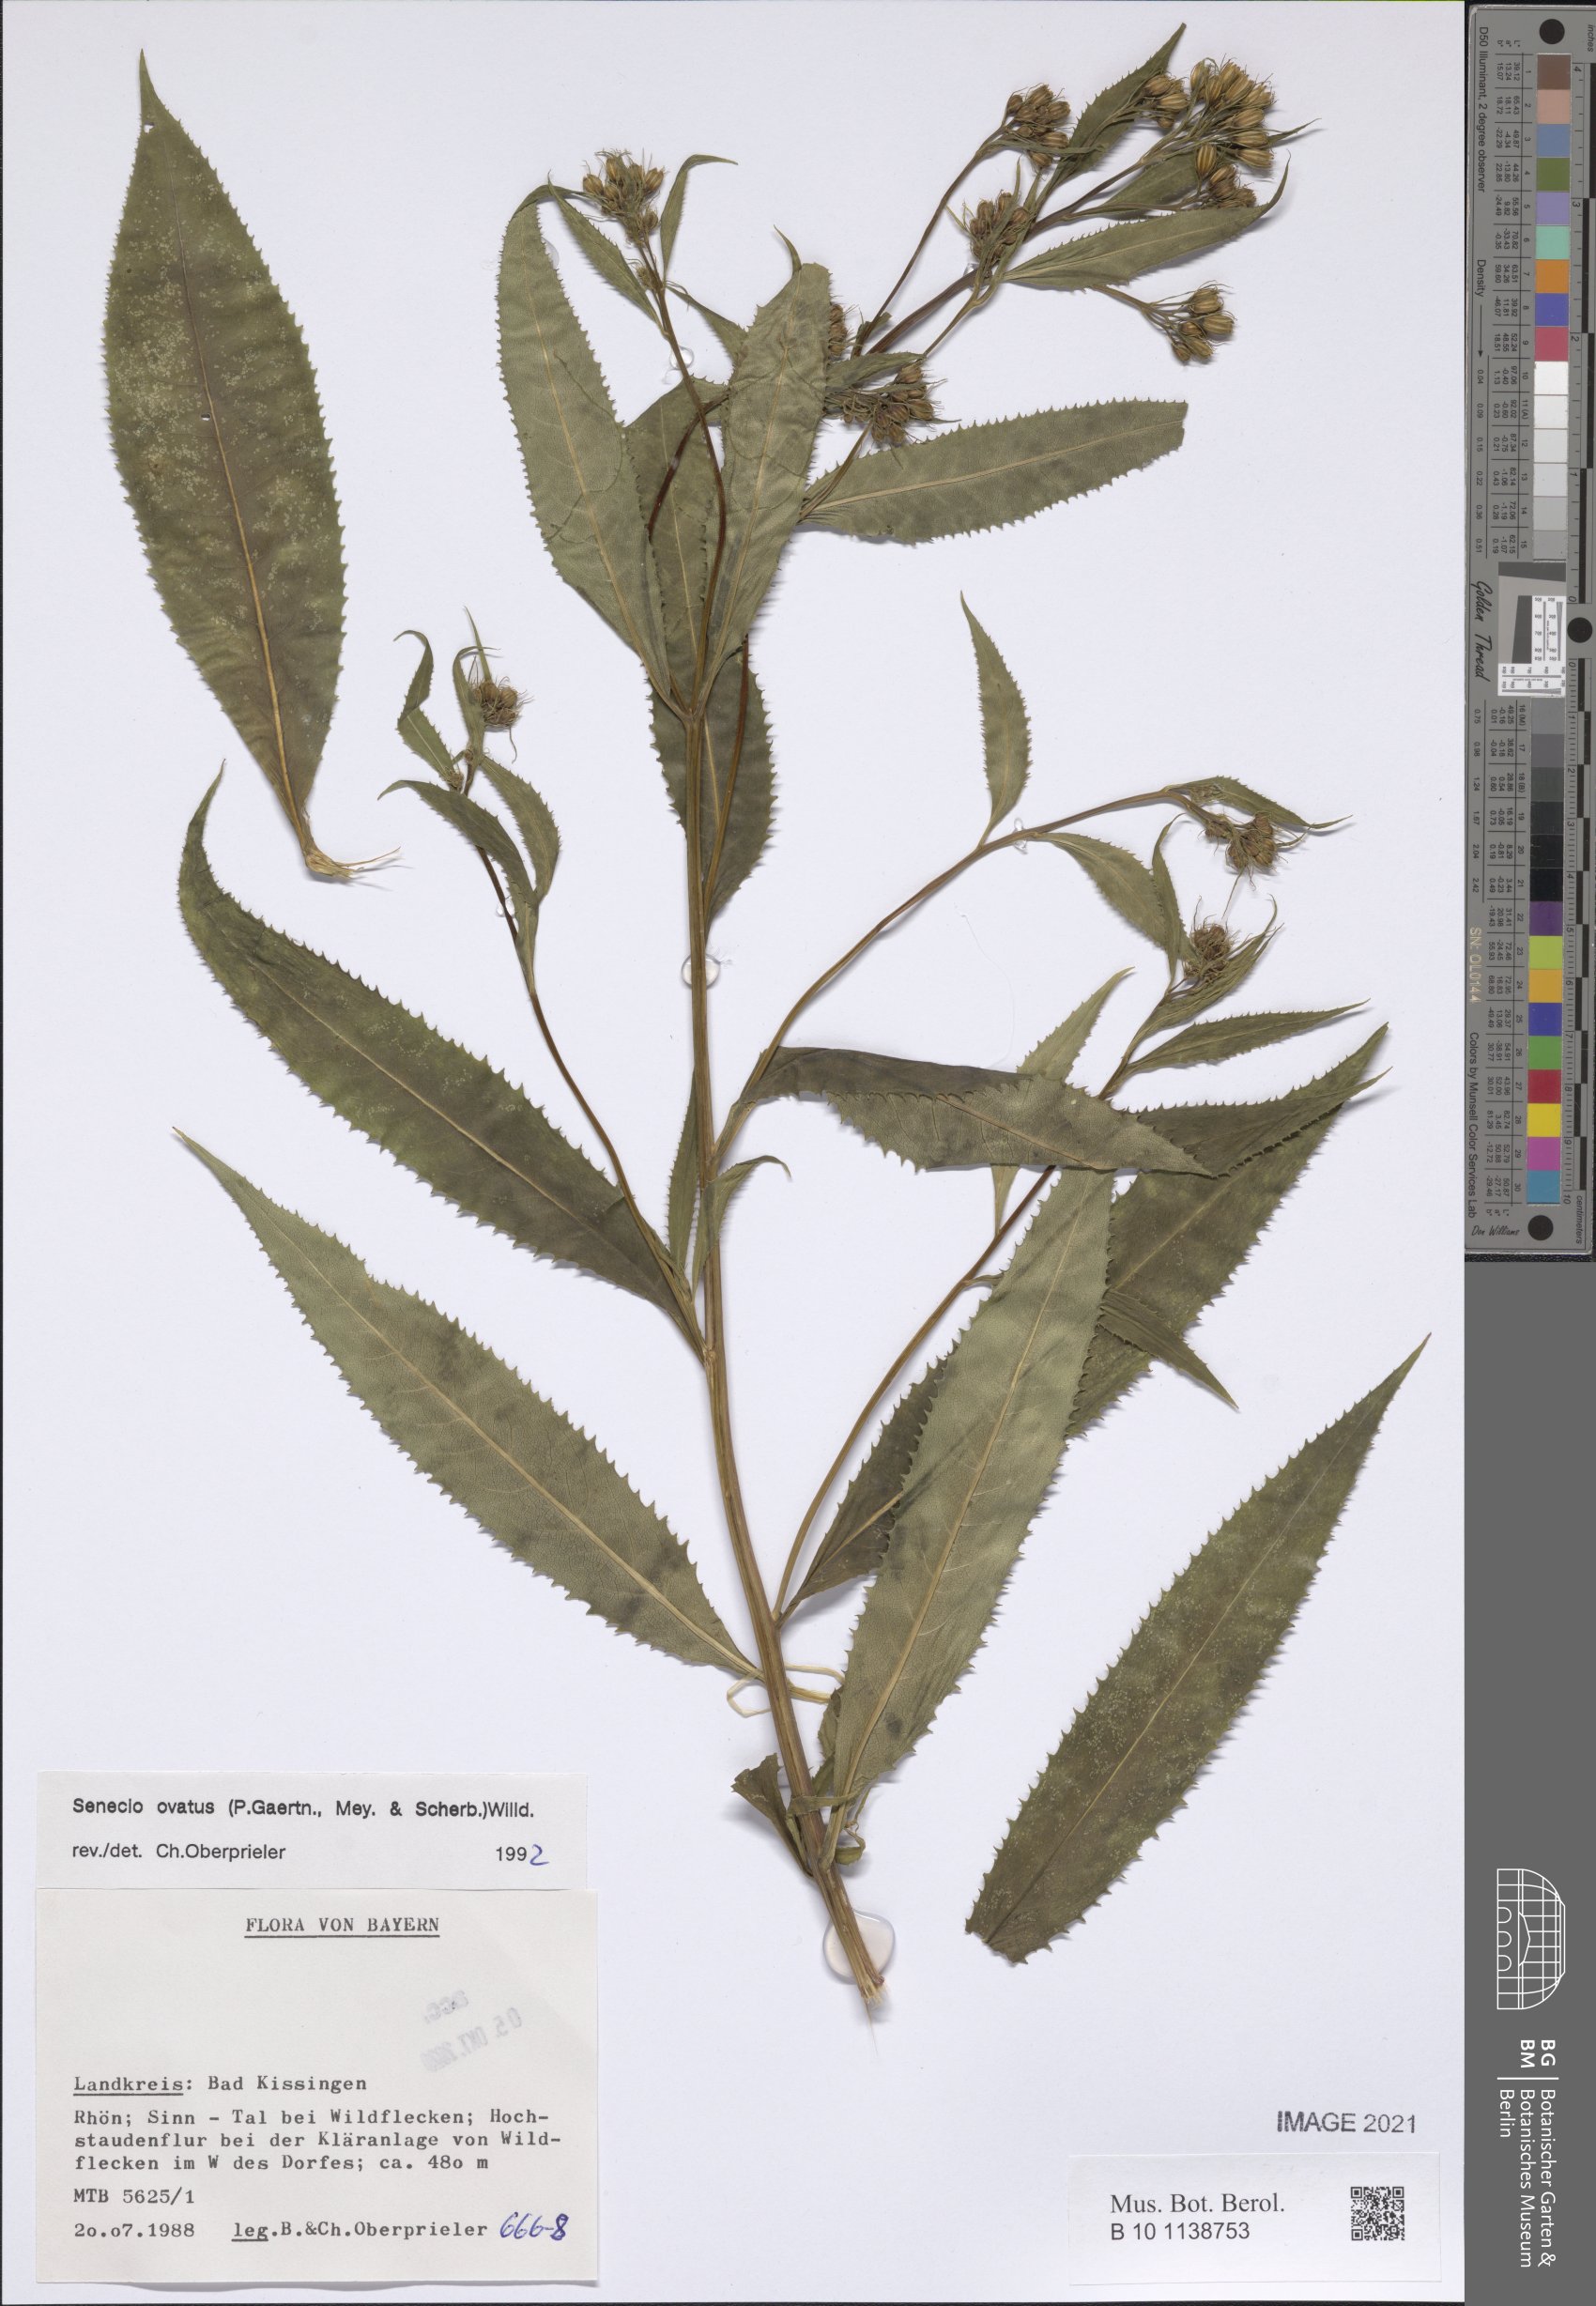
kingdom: Plantae
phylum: Tracheophyta
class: Magnoliopsida
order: Asterales
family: Asteraceae
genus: Senecio
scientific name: Senecio ovatus
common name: Wood ragwort
